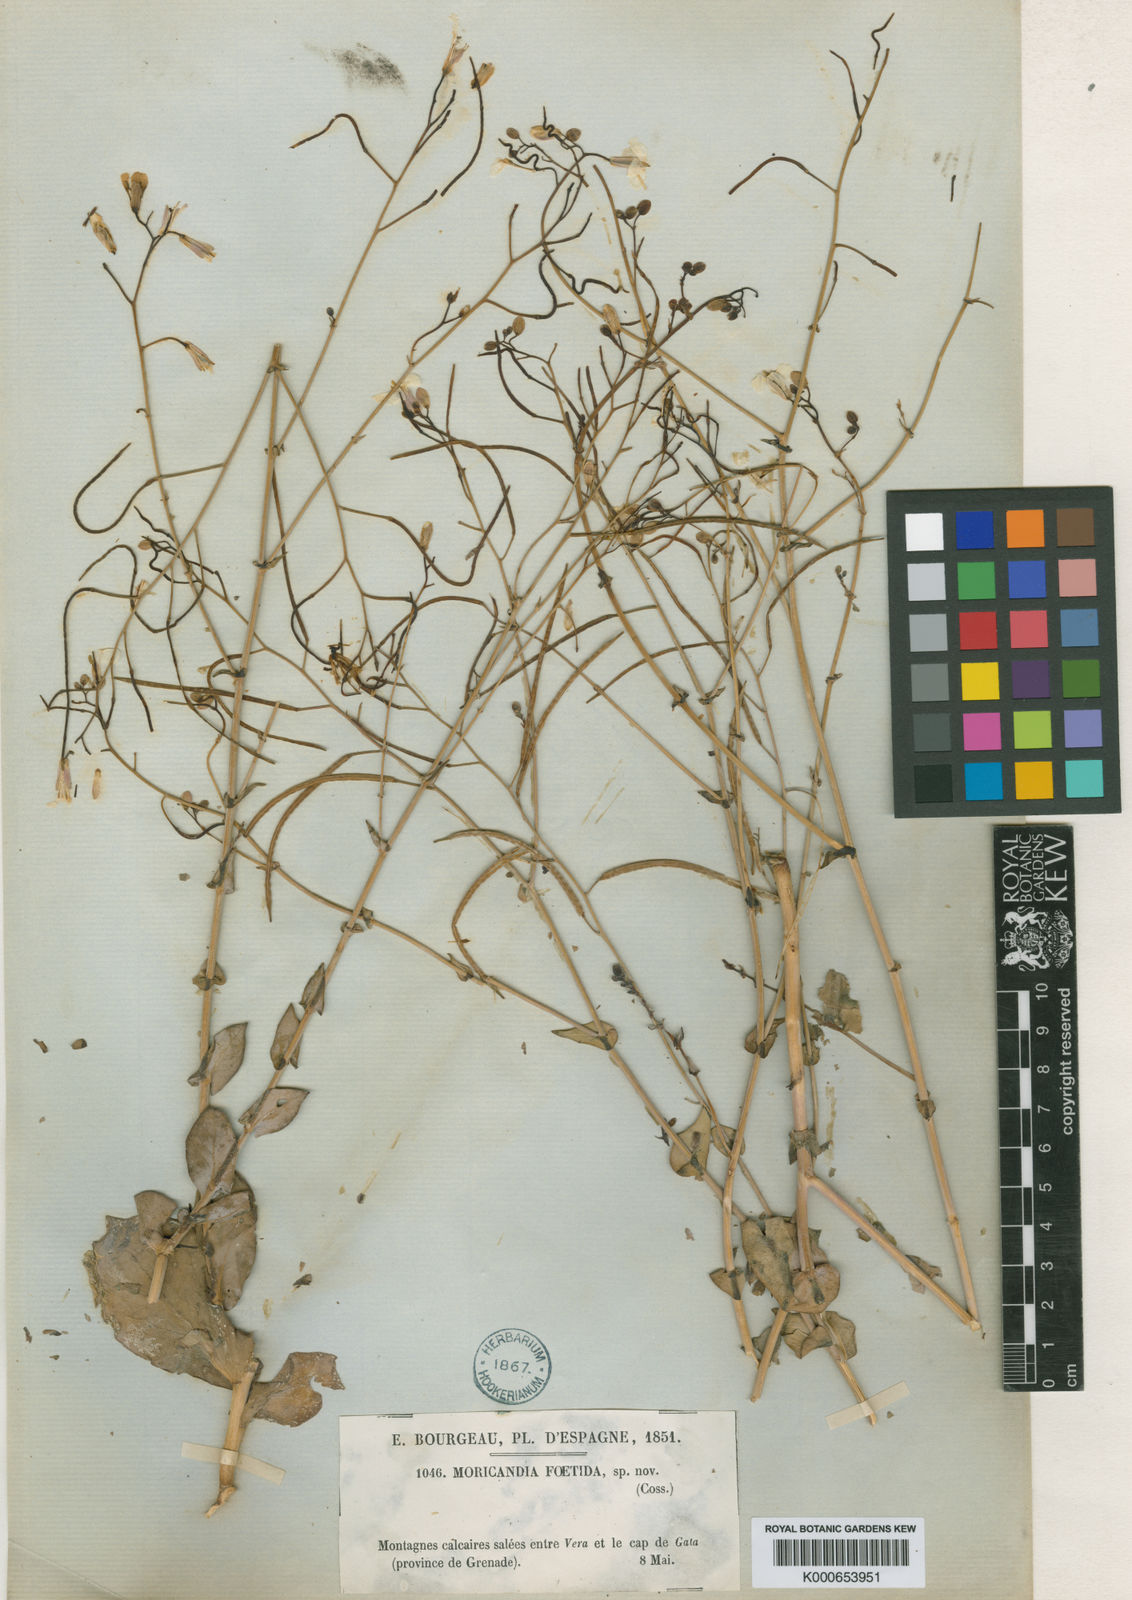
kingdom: Plantae
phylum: Tracheophyta
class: Magnoliopsida
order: Brassicales
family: Brassicaceae
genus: Moricandia
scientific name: Moricandia foetida
